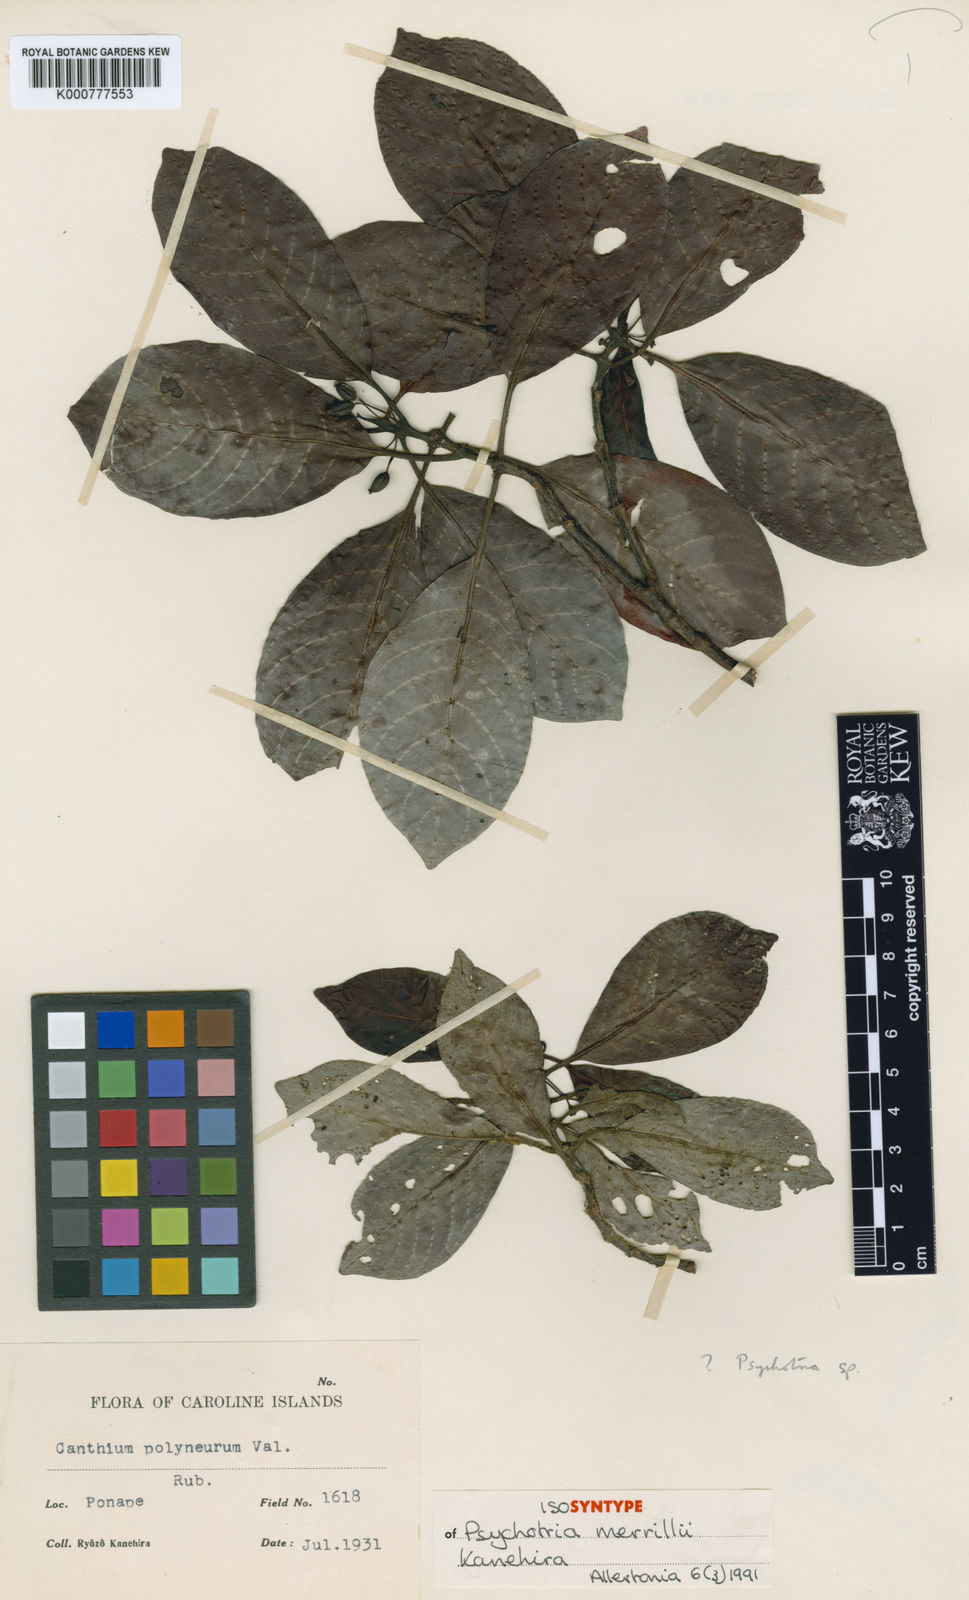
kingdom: Plantae
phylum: Tracheophyta
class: Magnoliopsida
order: Gentianales
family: Rubiaceae
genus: Psychotria
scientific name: Psychotria merrillii
